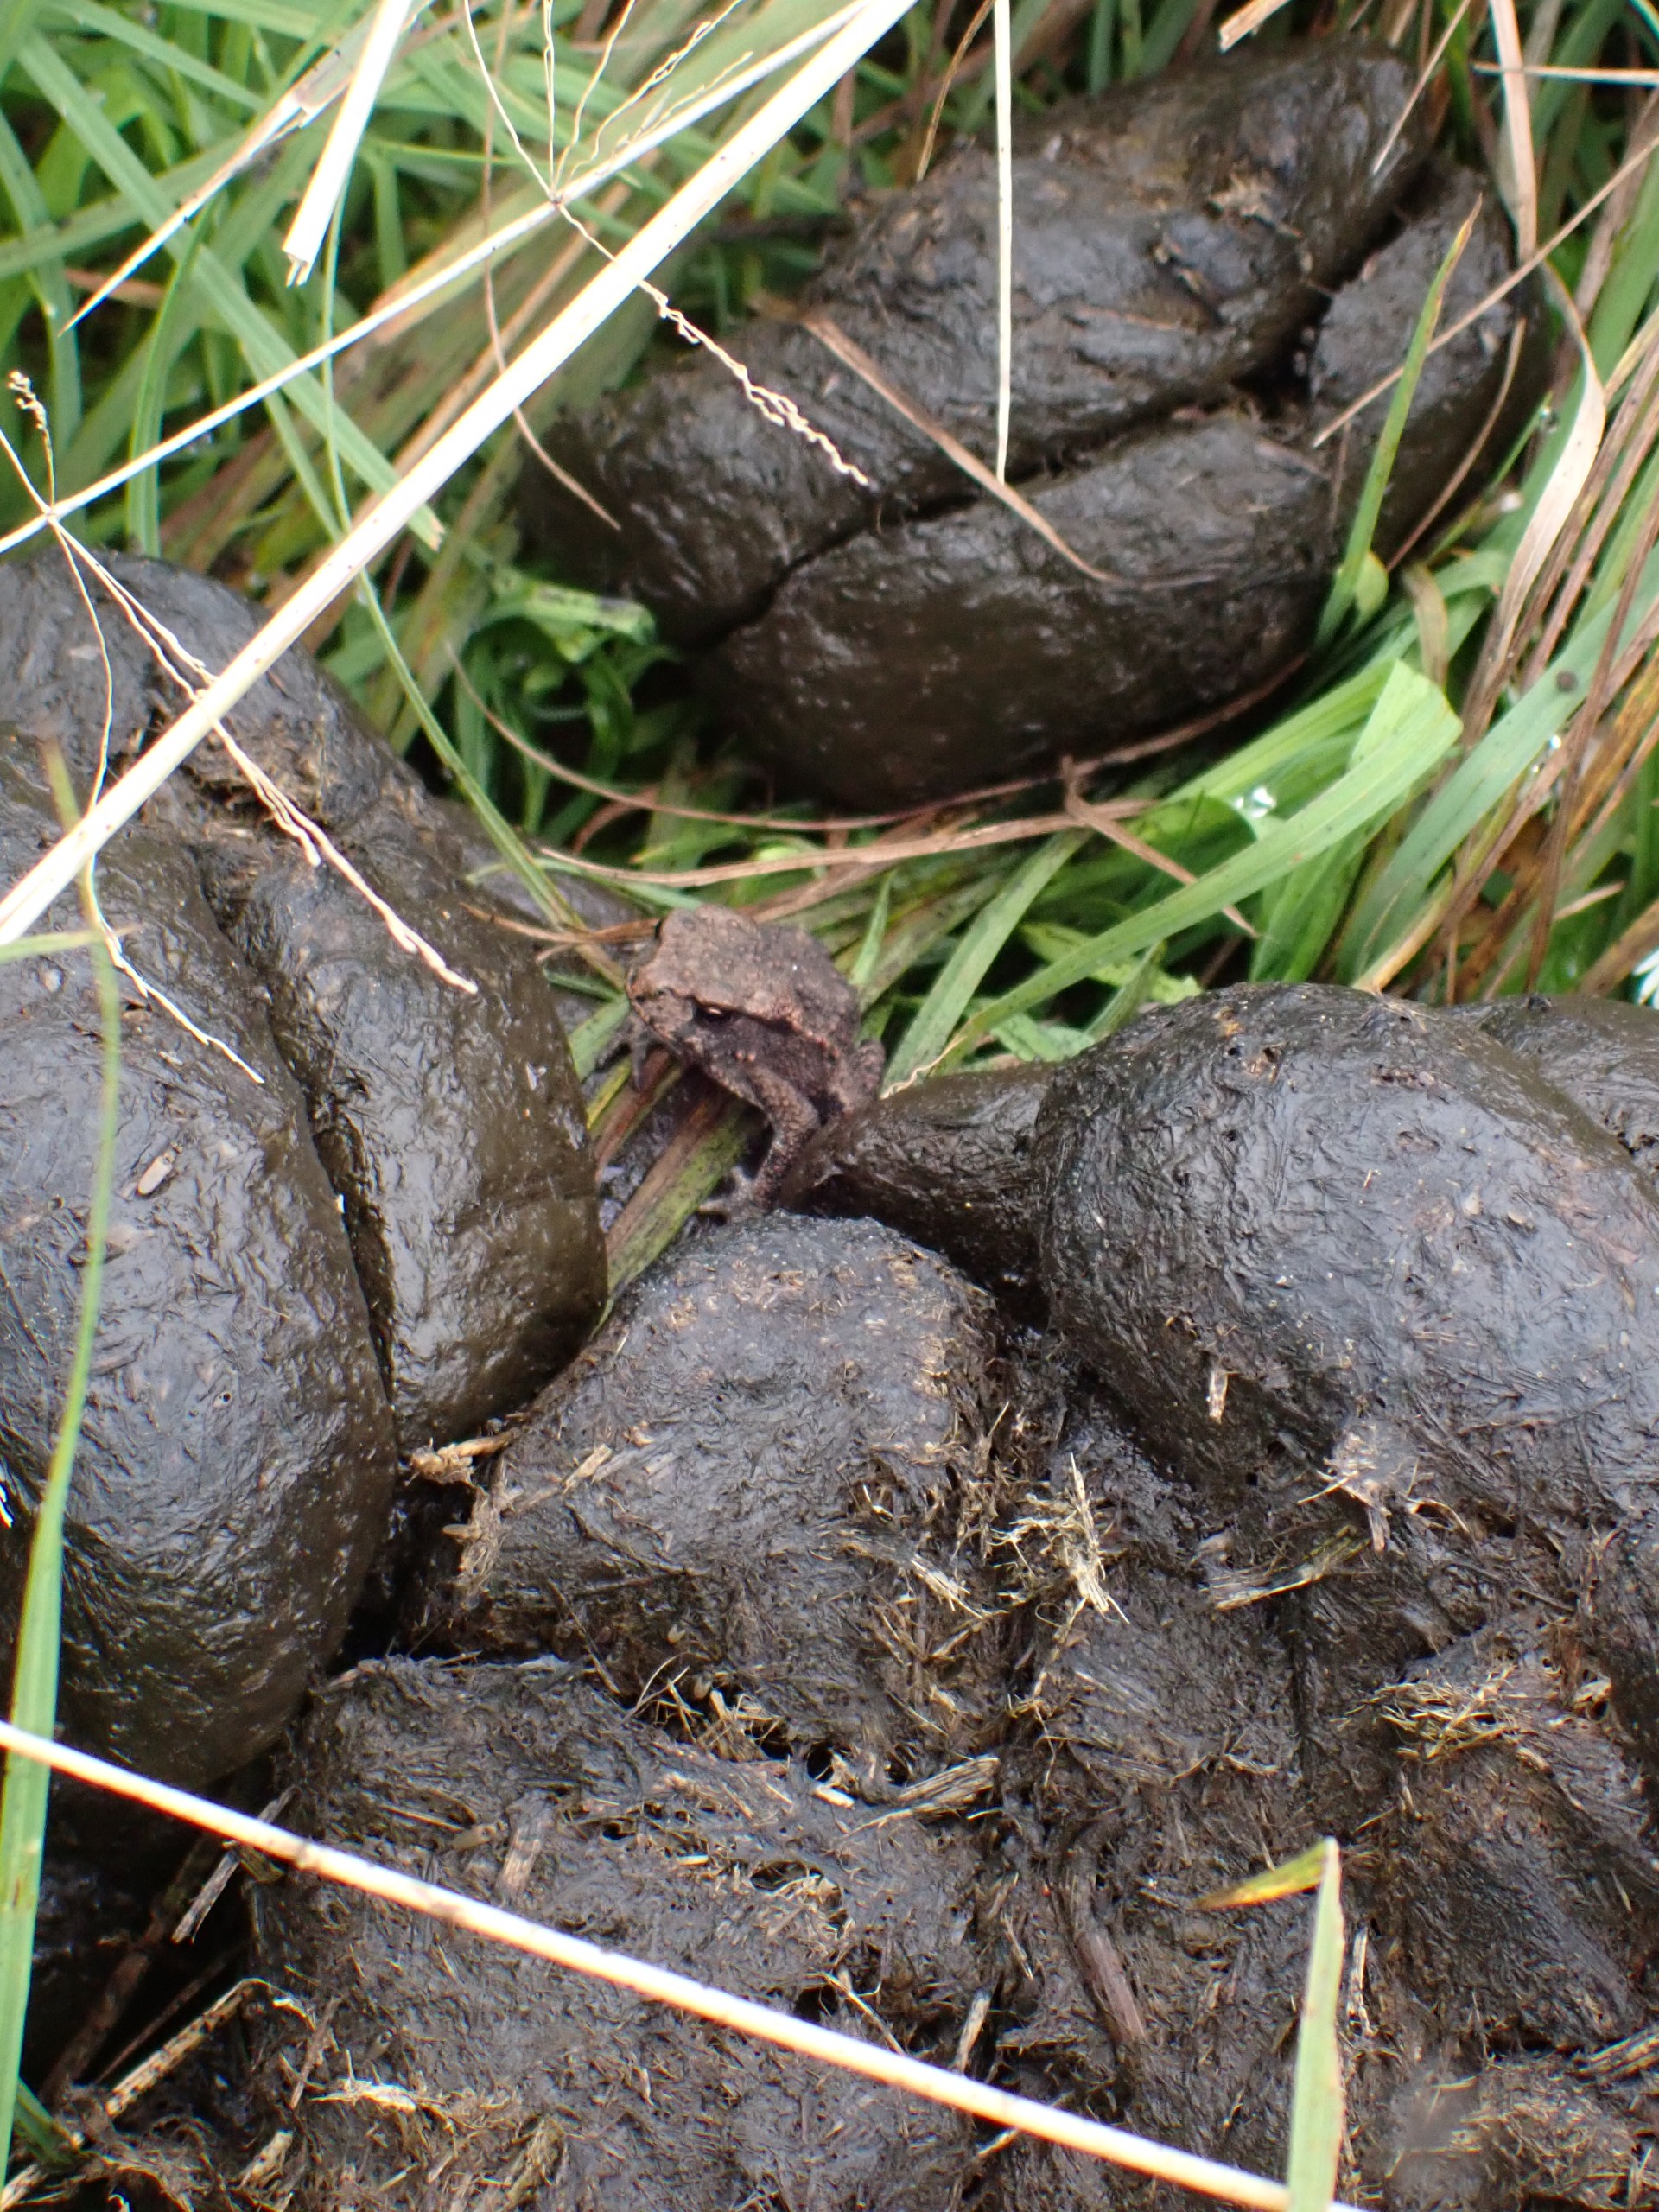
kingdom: Animalia
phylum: Chordata
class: Amphibia
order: Anura
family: Bufonidae
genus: Bufo
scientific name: Bufo bufo
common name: Skrubtudse
